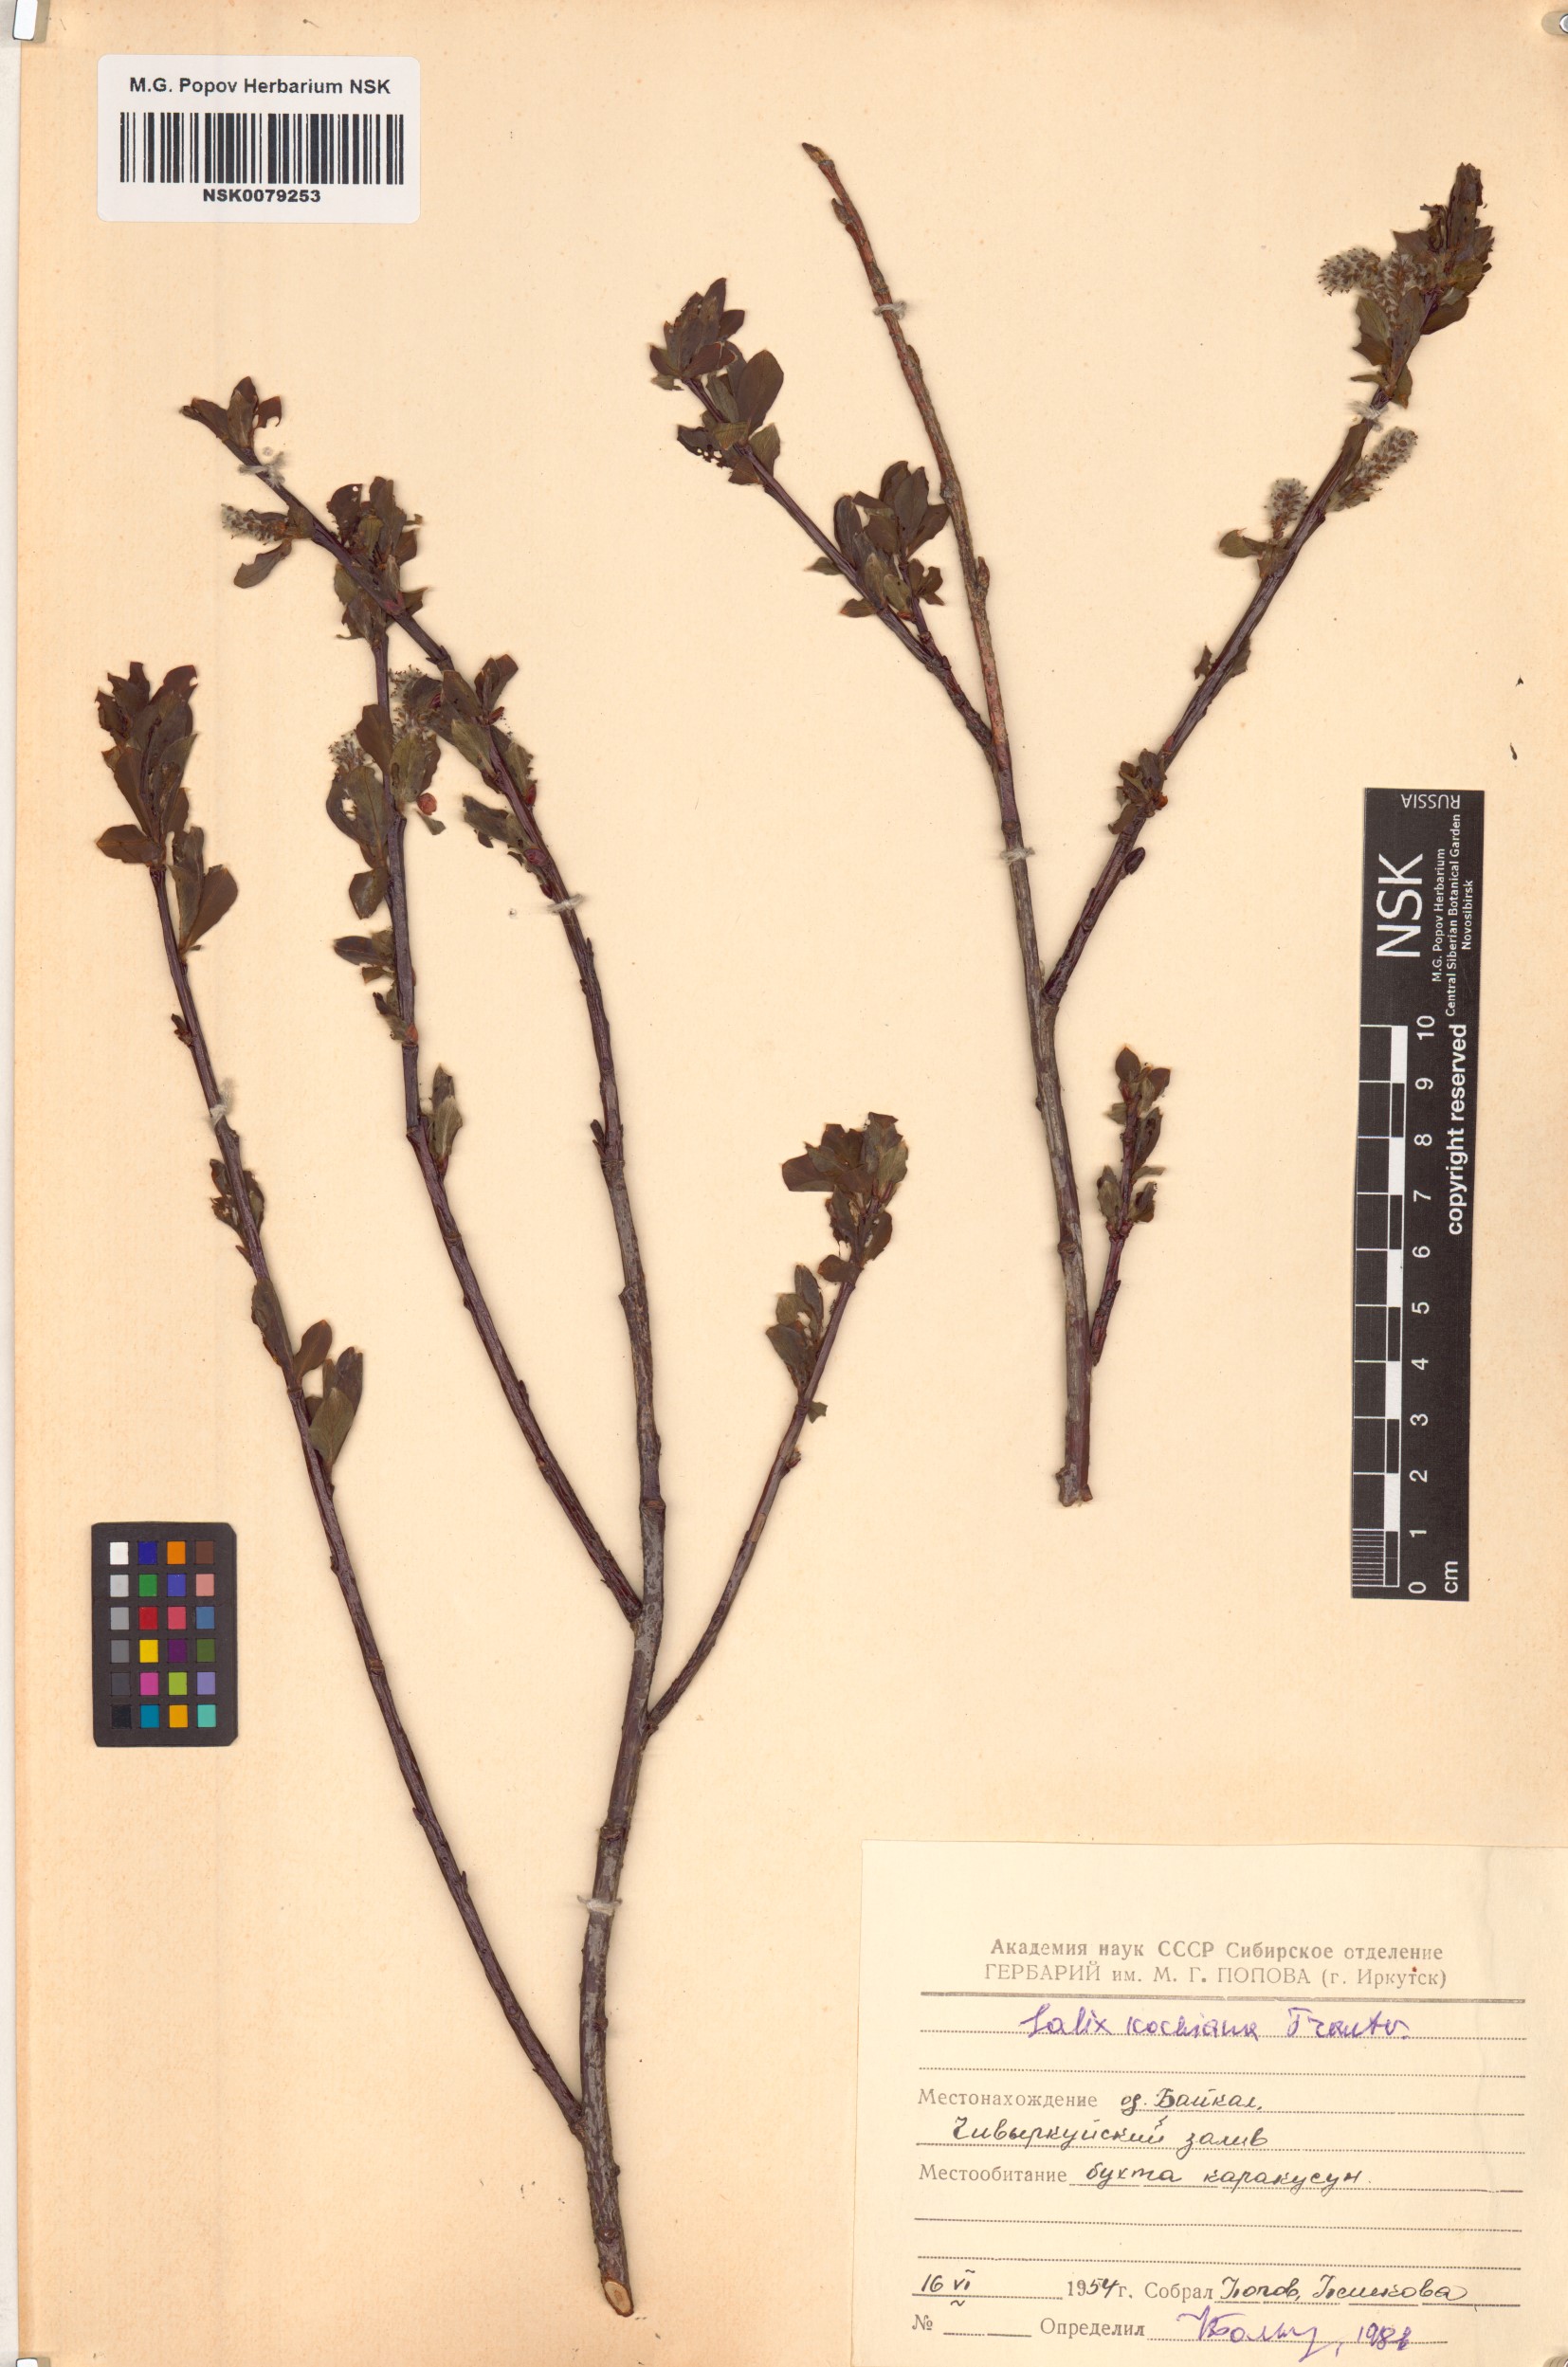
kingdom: Plantae
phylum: Tracheophyta
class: Magnoliopsida
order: Malpighiales
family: Salicaceae
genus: Salix
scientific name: Salix kochiana
